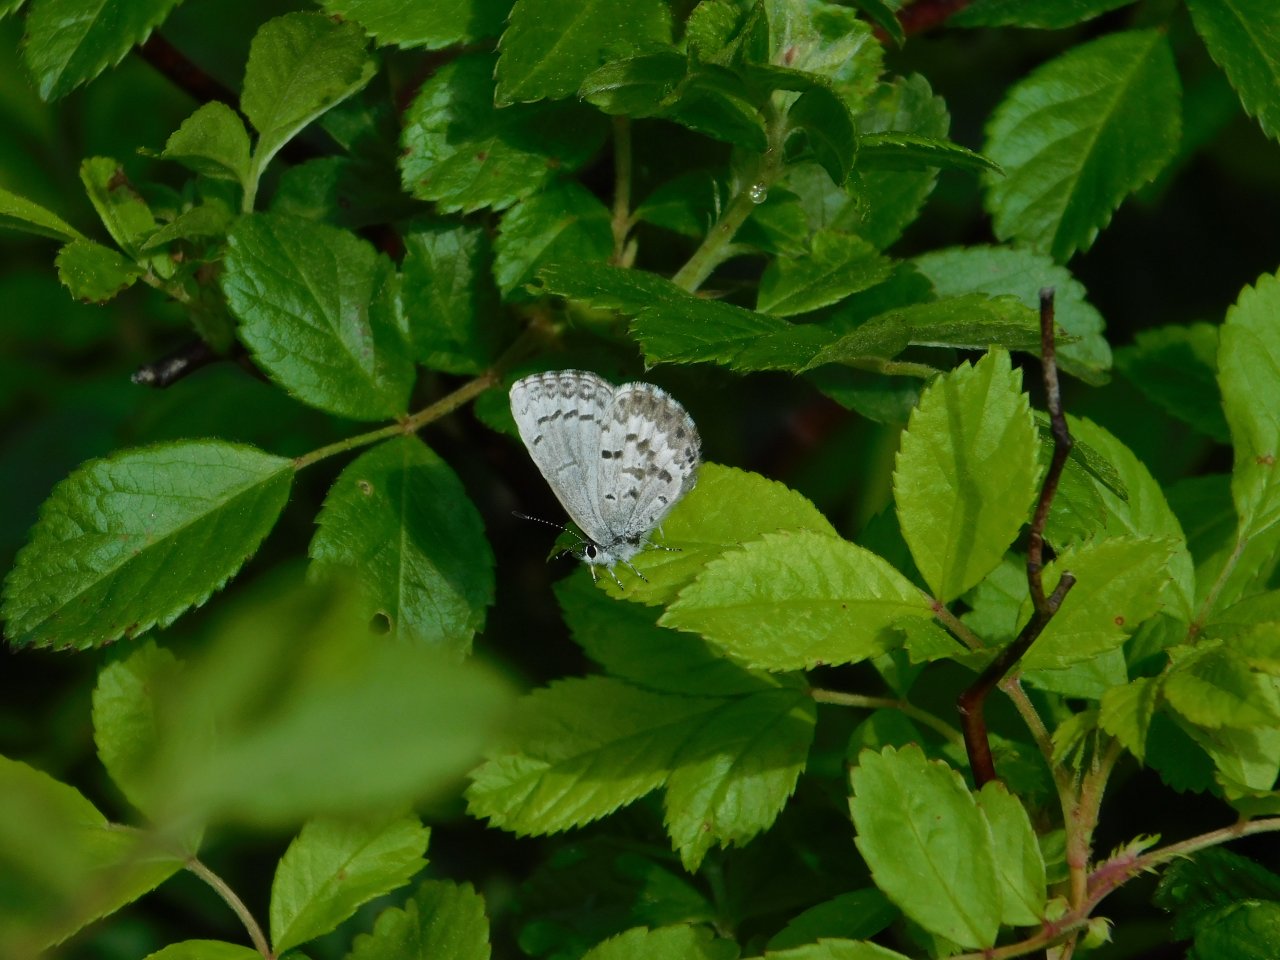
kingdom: Animalia
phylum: Arthropoda
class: Insecta
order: Lepidoptera
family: Lycaenidae
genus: Celastrina
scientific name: Celastrina lucia
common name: Northern Spring Azure
